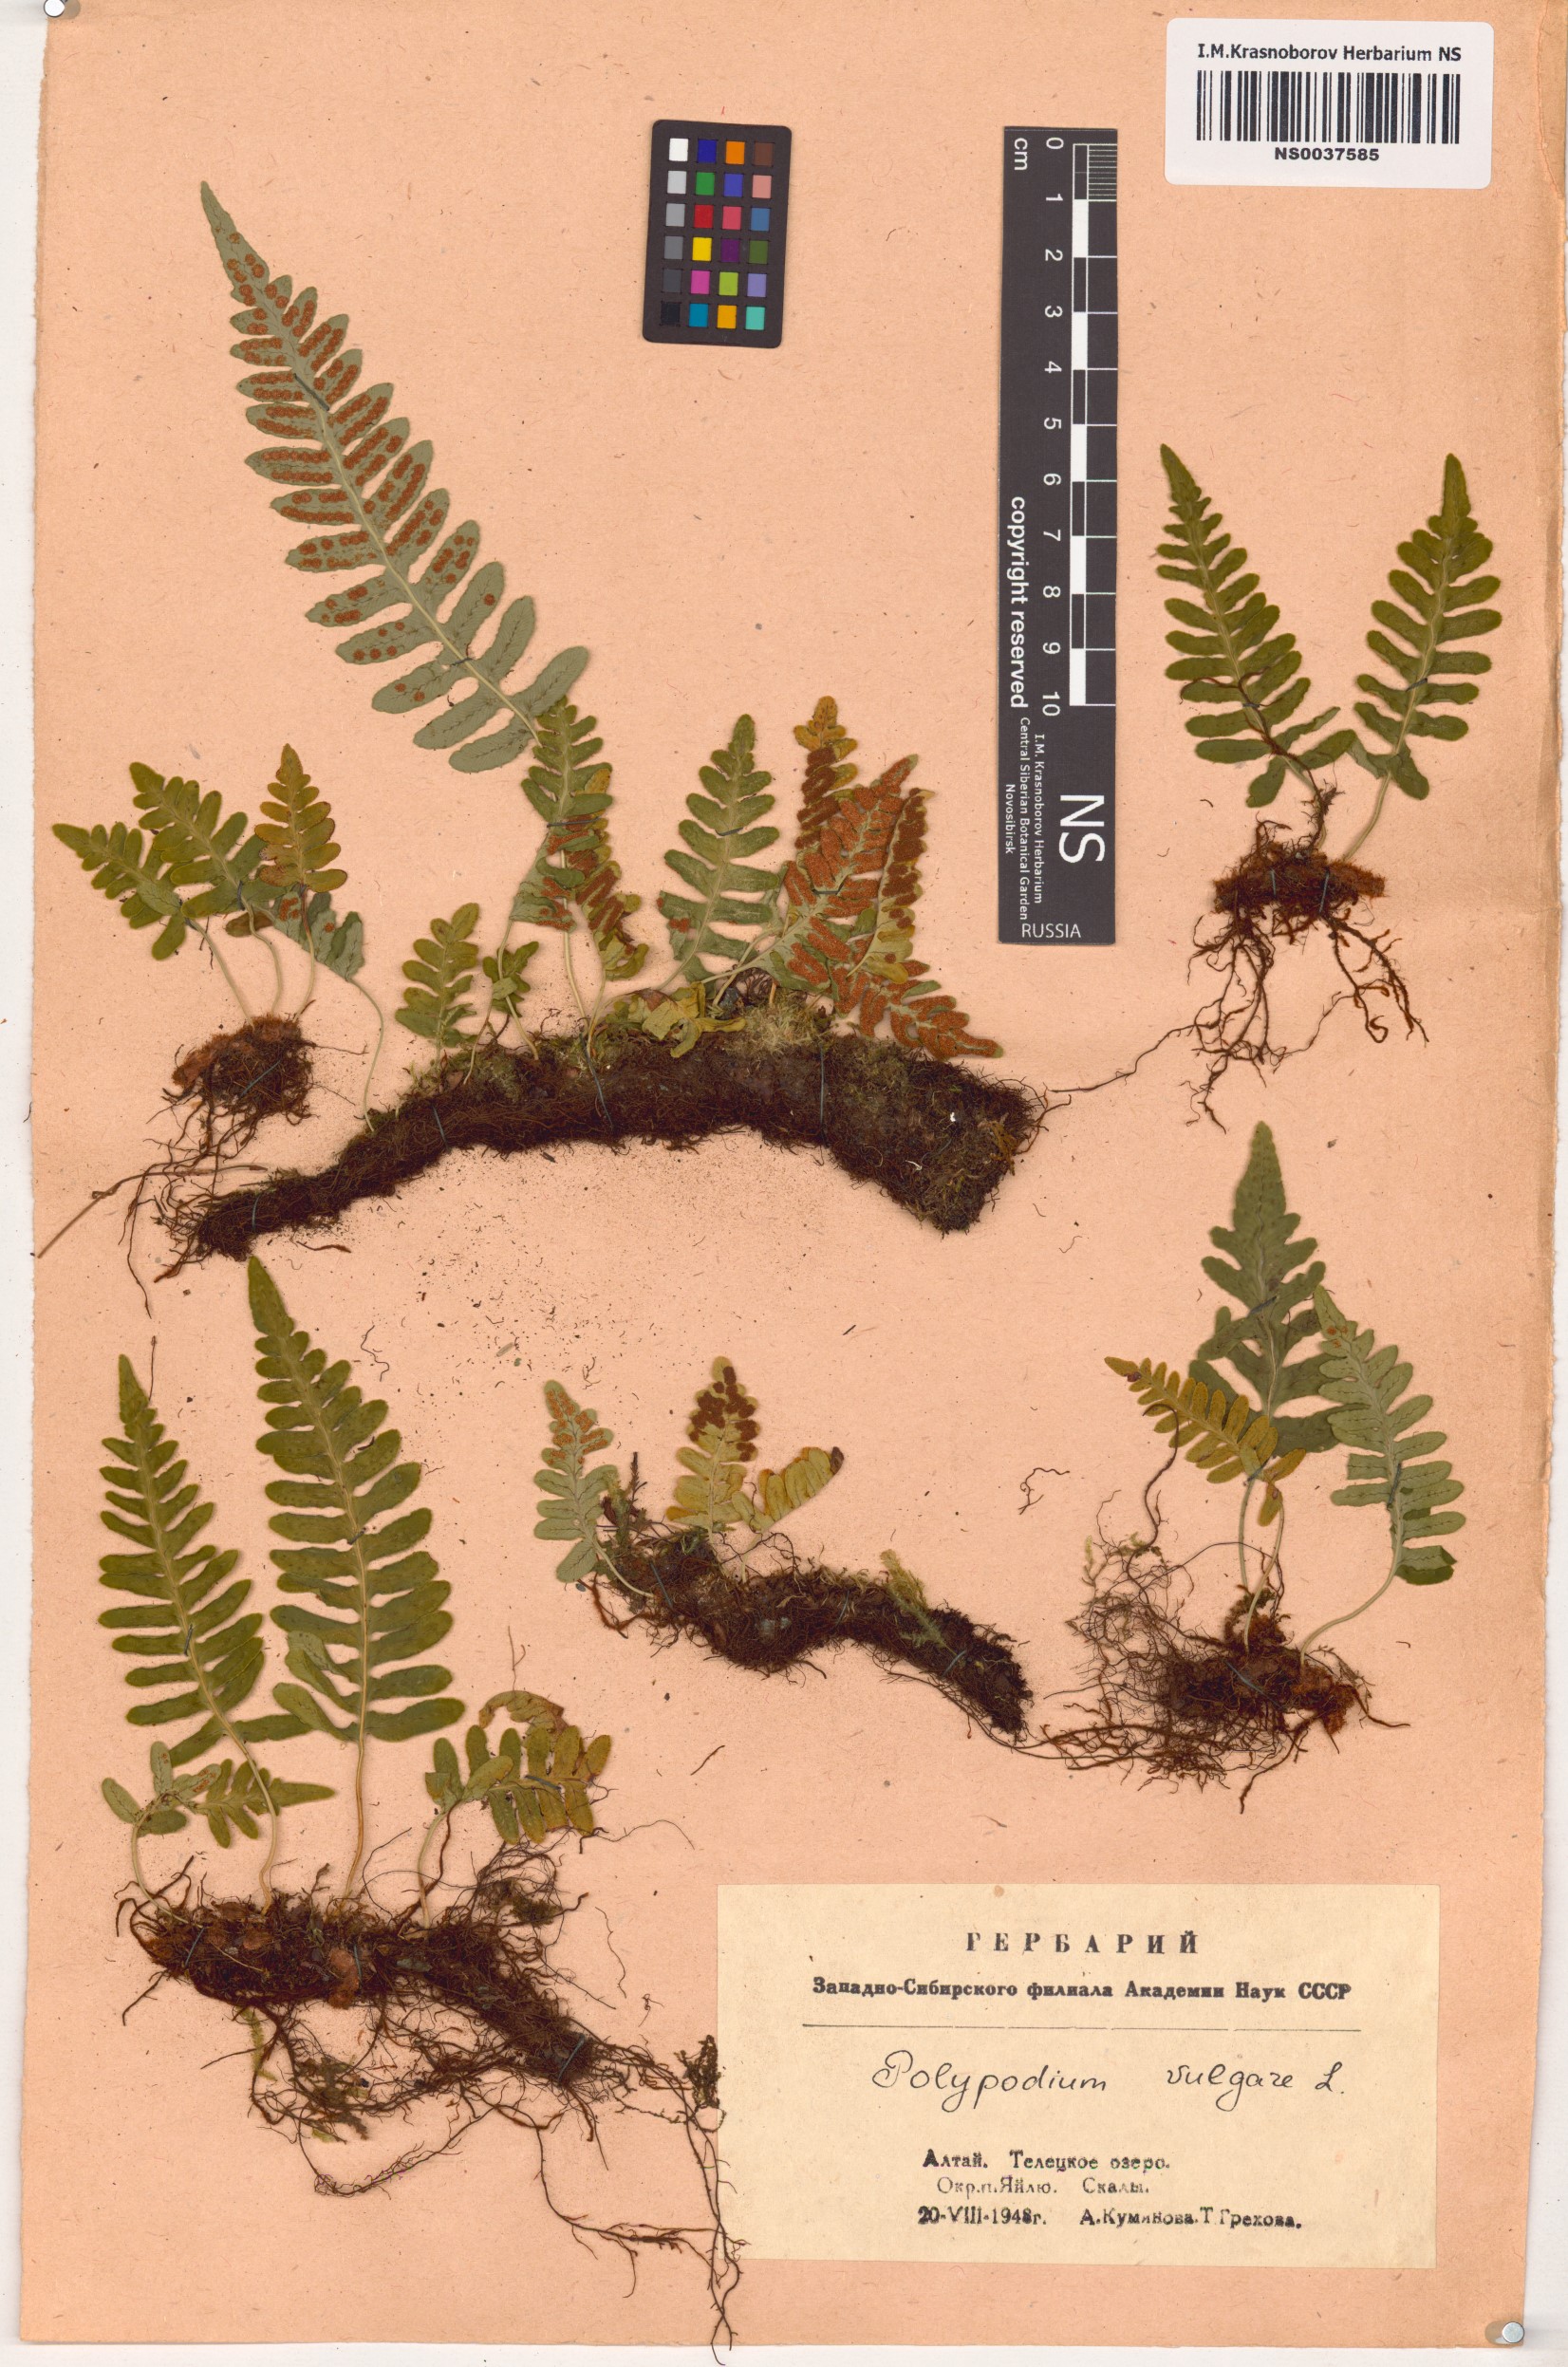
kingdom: Plantae
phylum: Tracheophyta
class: Polypodiopsida
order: Polypodiales
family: Polypodiaceae
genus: Polypodium
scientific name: Polypodium vulgare
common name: Common polypody
